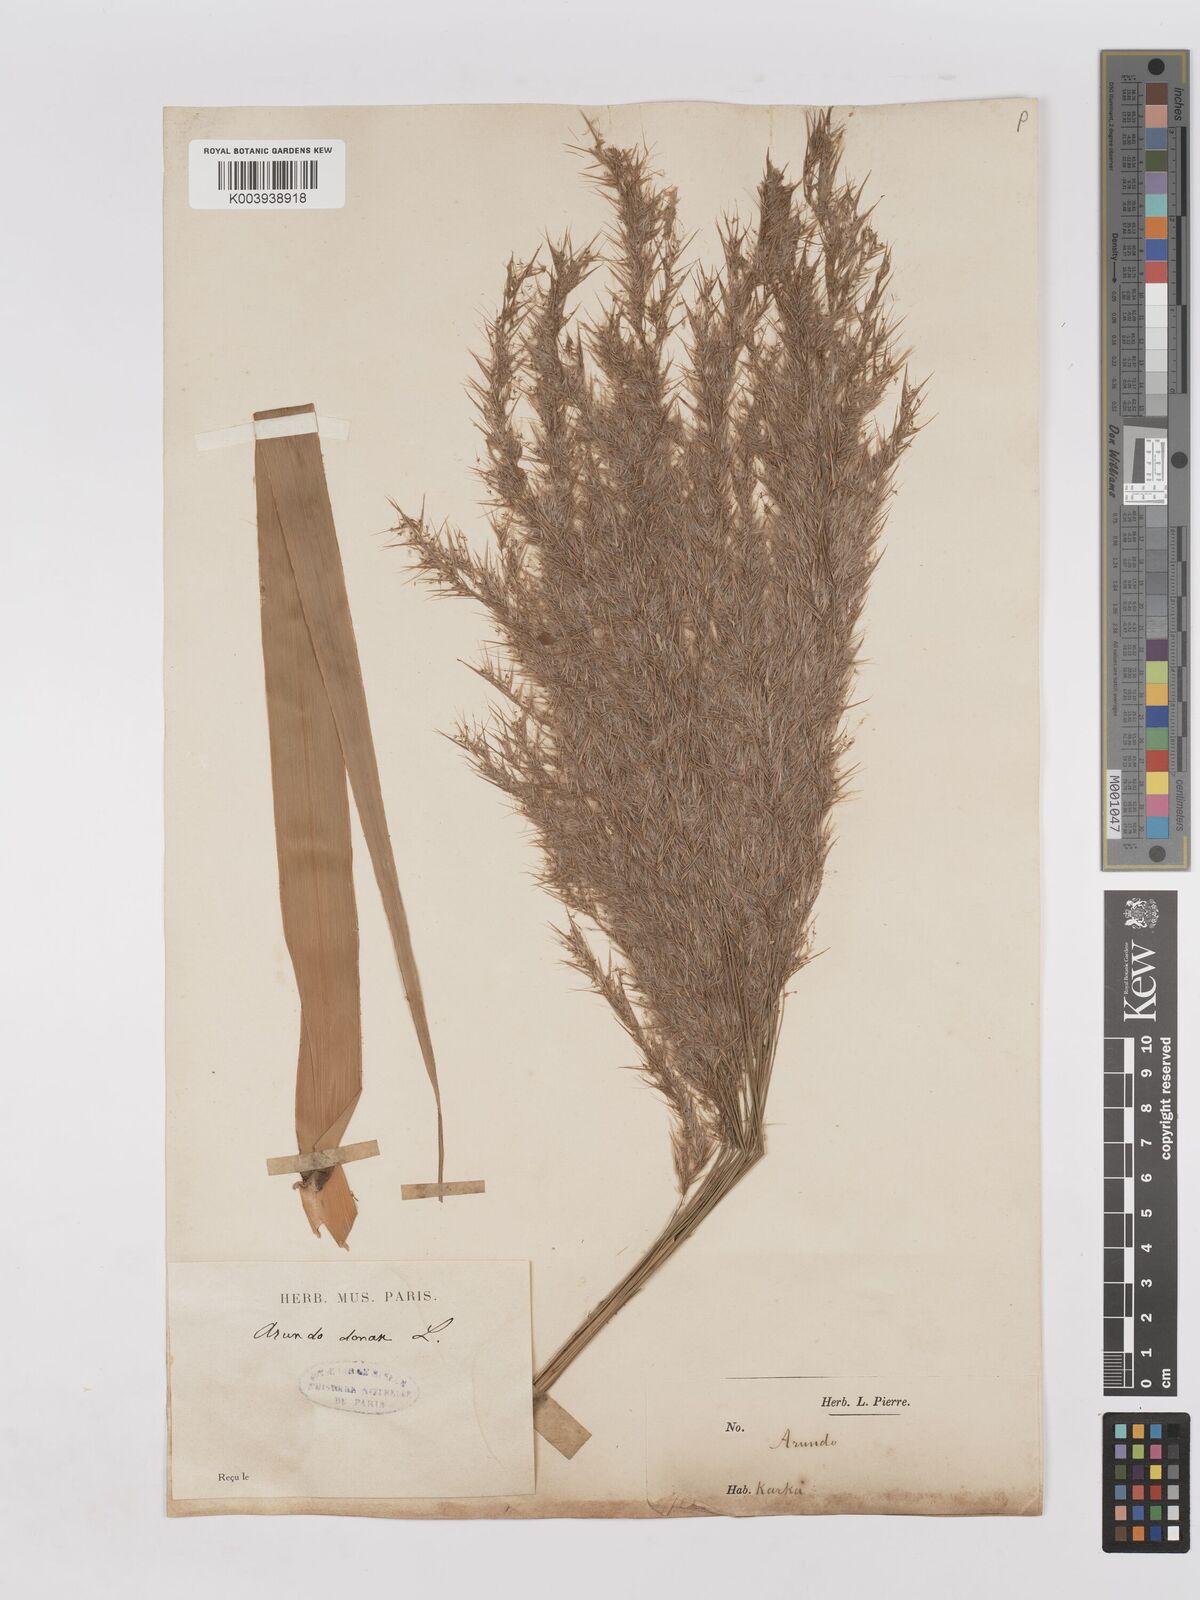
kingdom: Plantae
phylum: Tracheophyta
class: Liliopsida
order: Poales
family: Poaceae
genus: Phragmites
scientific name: Phragmites karka
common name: Tropical reed
